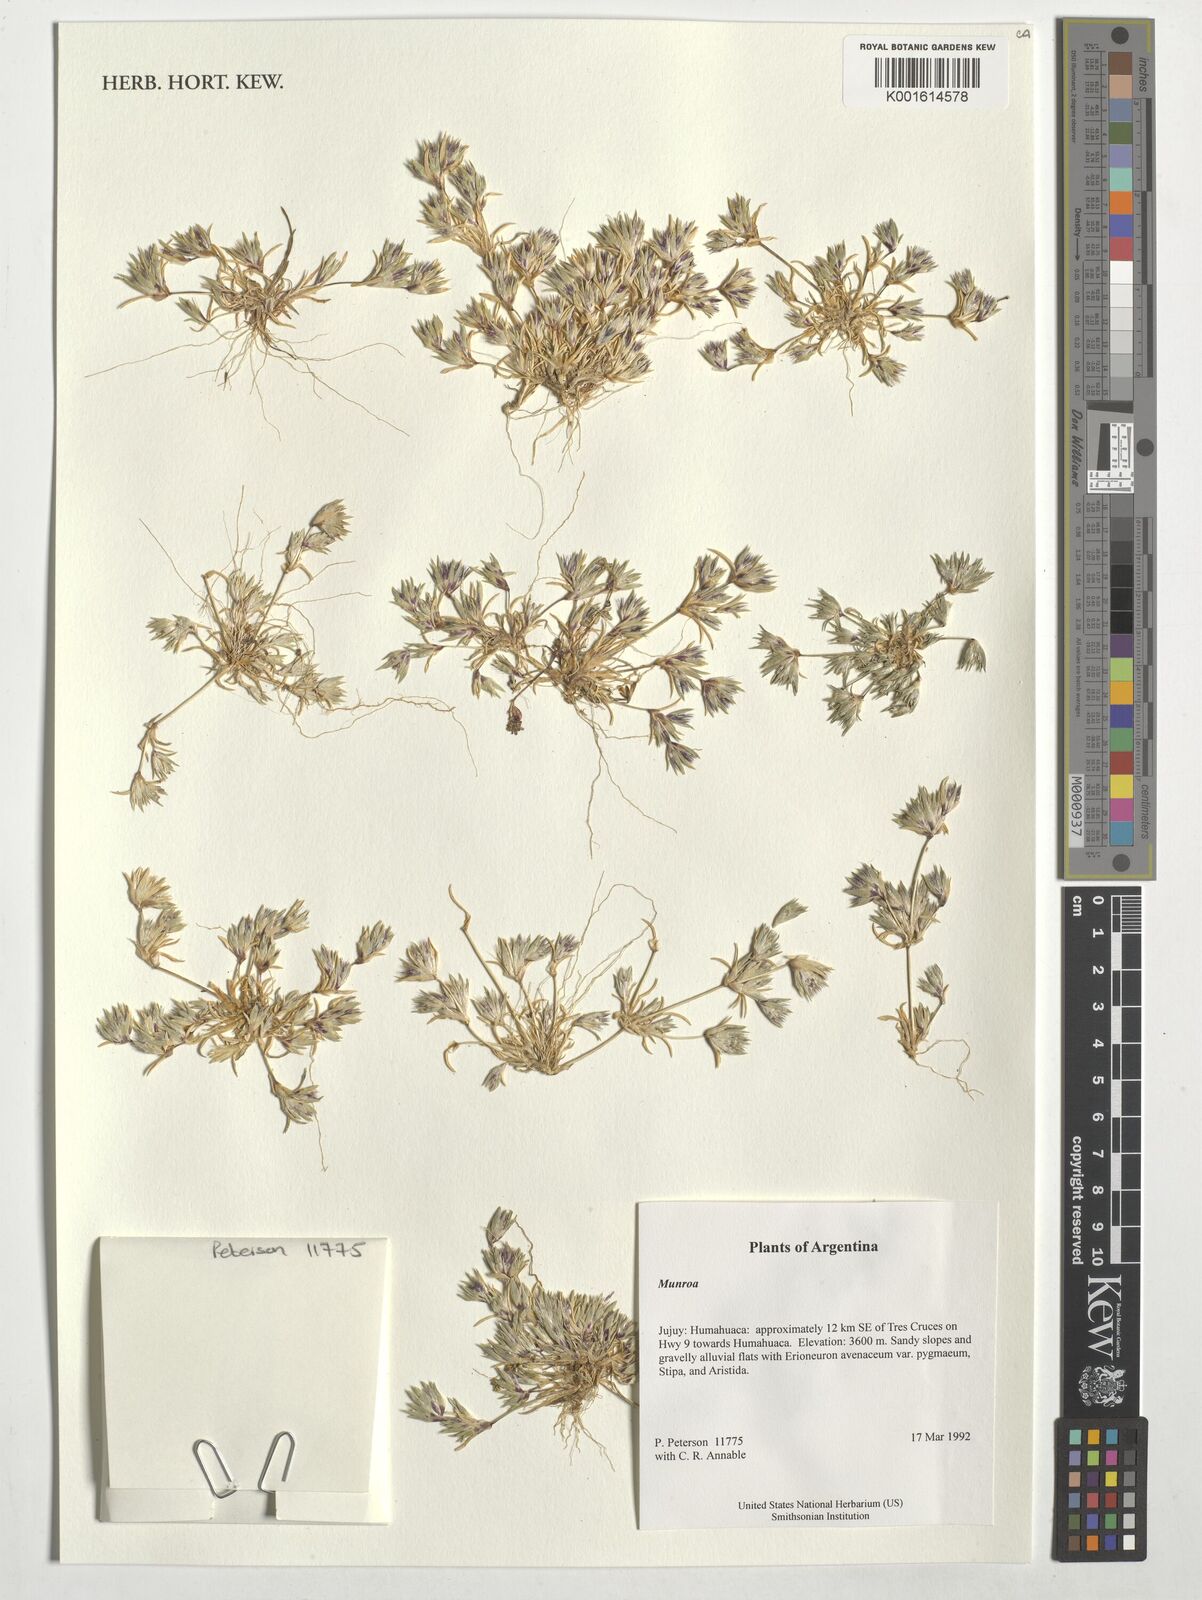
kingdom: Plantae
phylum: Tracheophyta
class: Liliopsida
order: Poales
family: Poaceae
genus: Munroa
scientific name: Munroa
